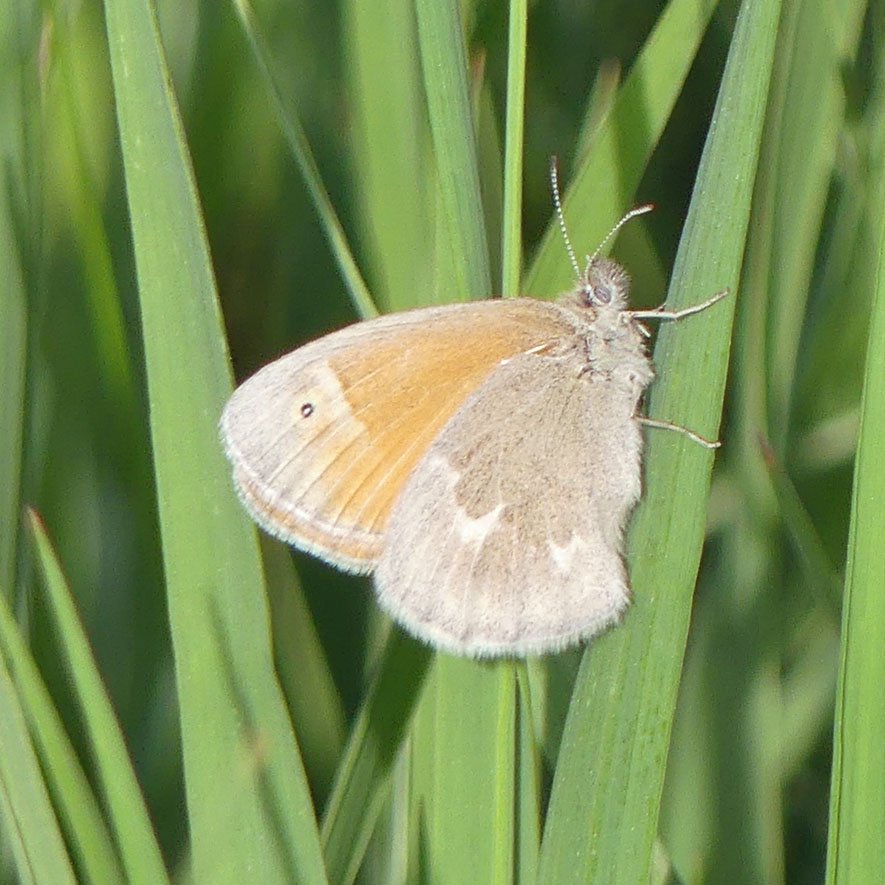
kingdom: Animalia
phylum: Arthropoda
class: Insecta
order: Lepidoptera
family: Nymphalidae
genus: Coenonympha
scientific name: Coenonympha tullia
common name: Large Heath
